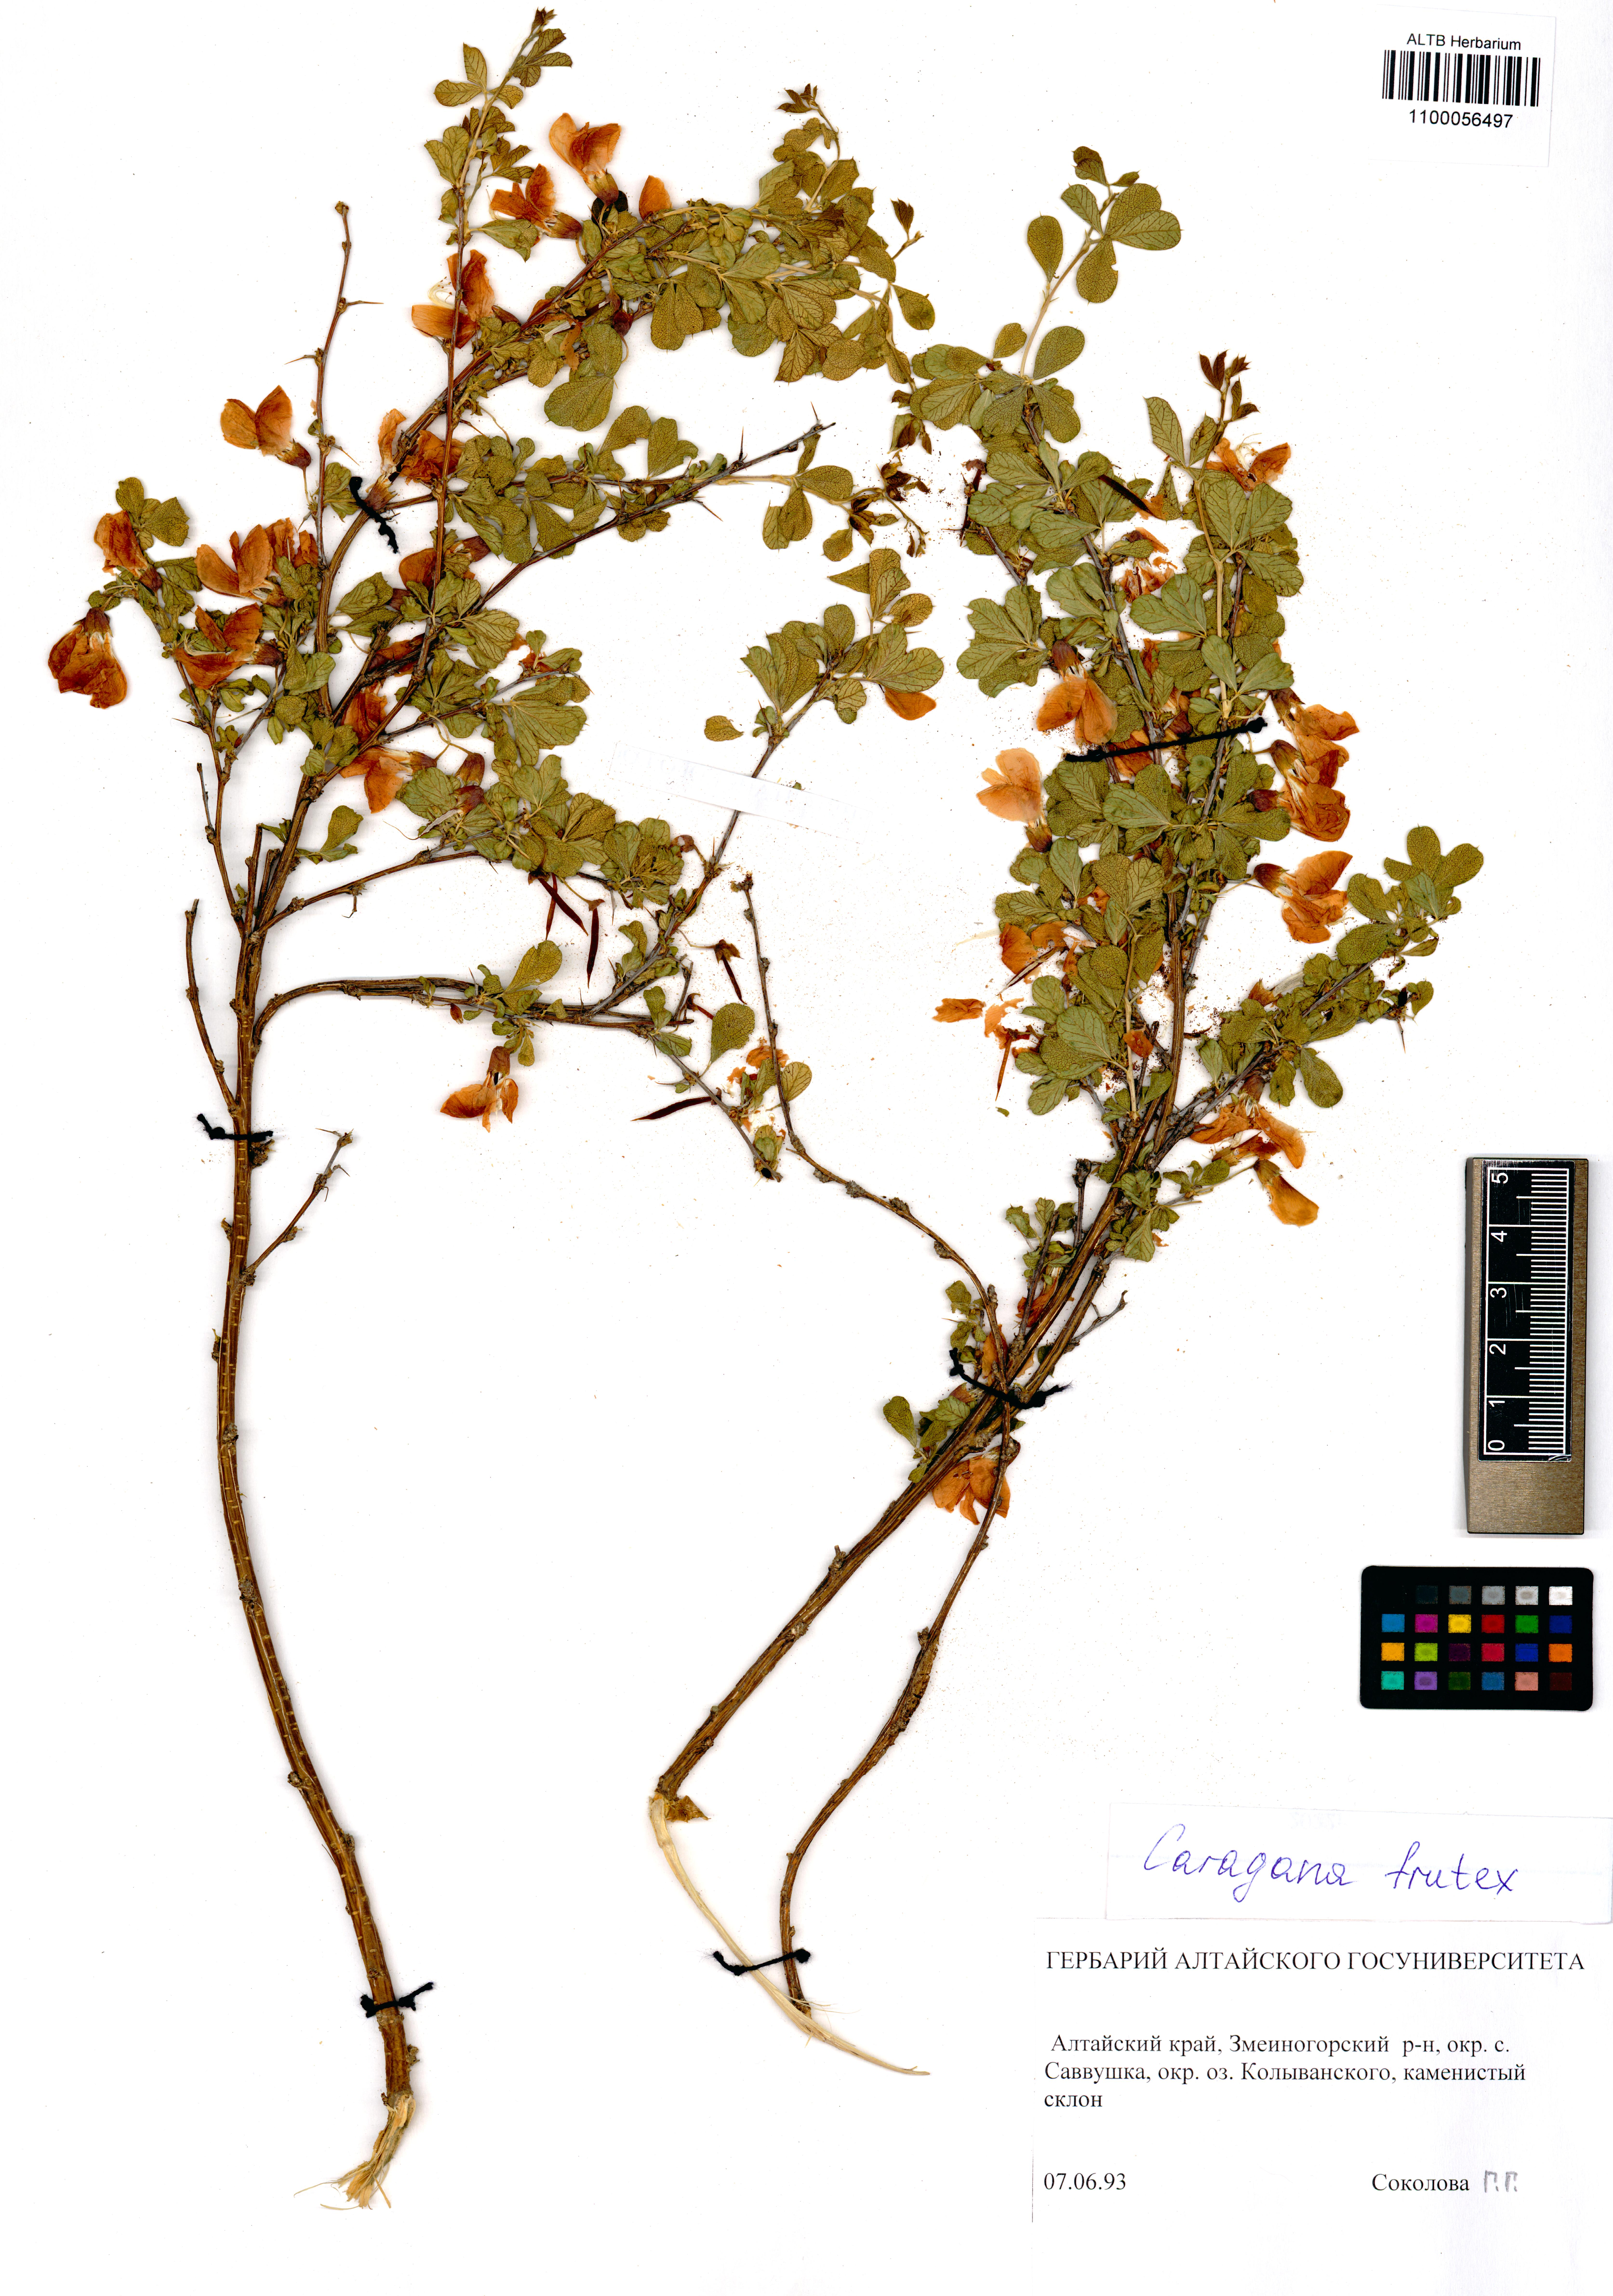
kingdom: Plantae
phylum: Tracheophyta
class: Magnoliopsida
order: Fabales
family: Fabaceae
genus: Caragana
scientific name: Caragana frutex
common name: Russian peashrub
